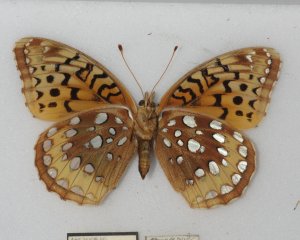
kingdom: Animalia
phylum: Arthropoda
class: Insecta
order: Lepidoptera
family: Nymphalidae
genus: Speyeria
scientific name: Speyeria cybele
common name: Great Spangled Fritillary
